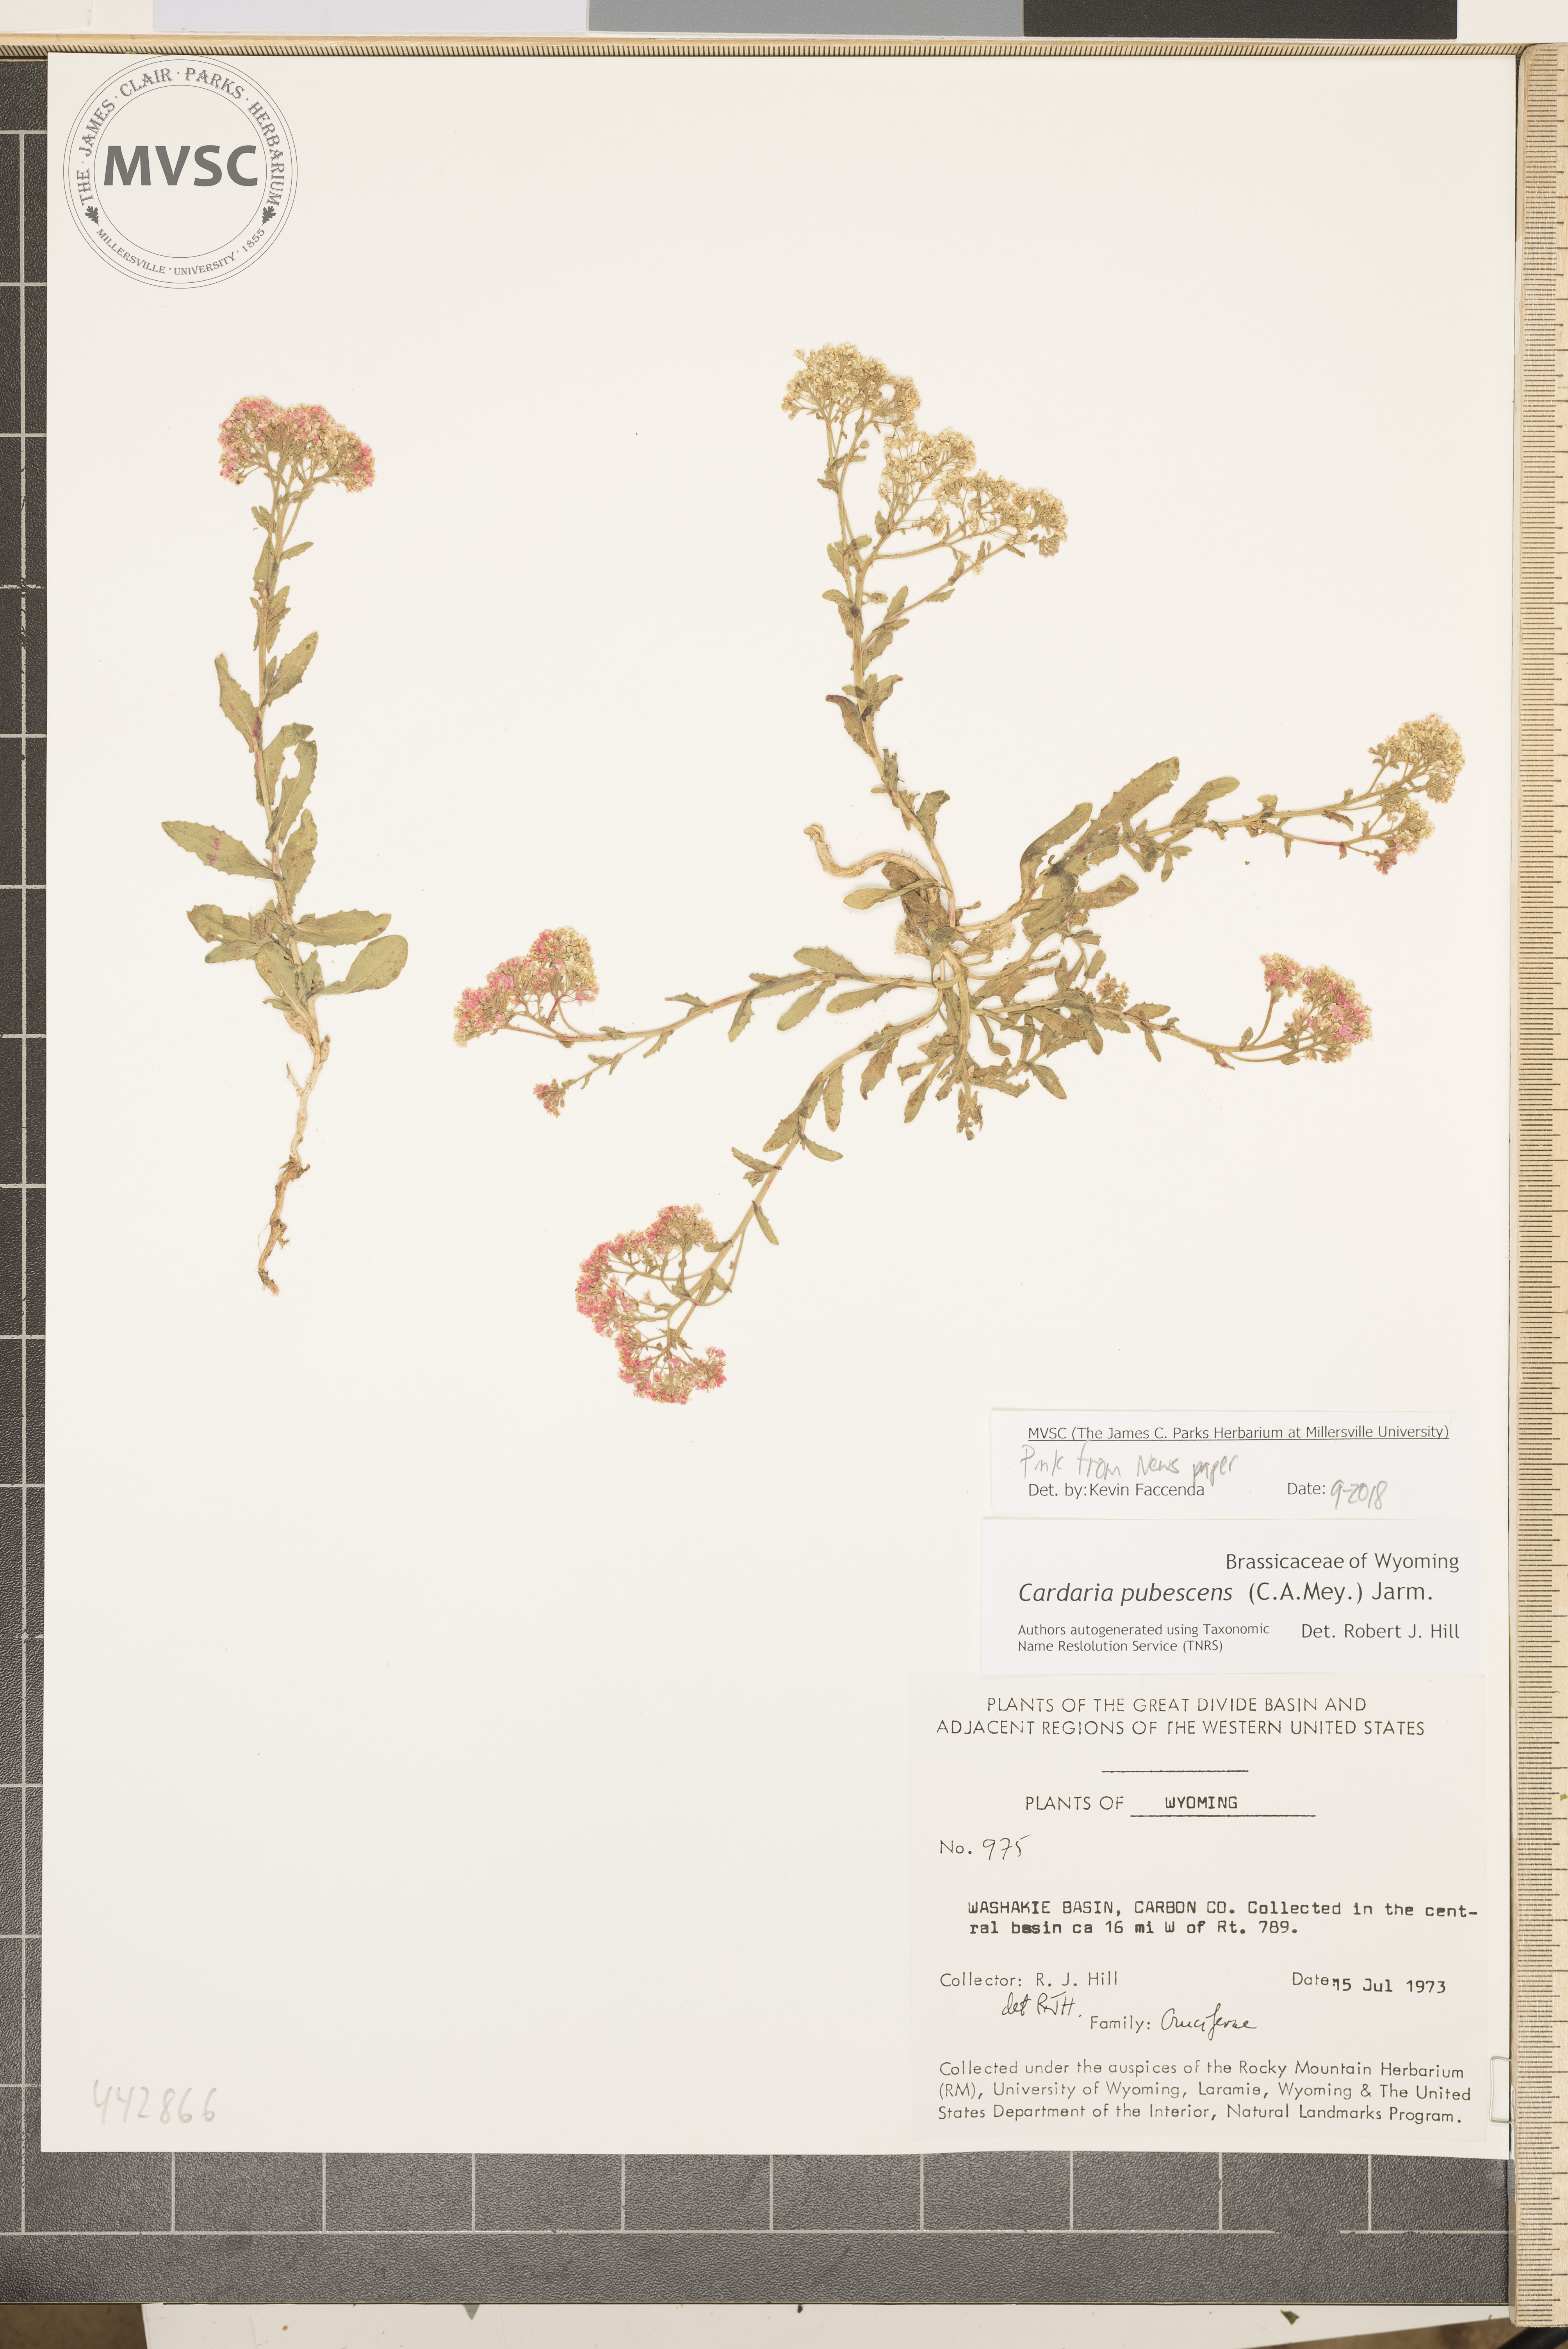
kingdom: Plantae
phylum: Tracheophyta
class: Magnoliopsida
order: Brassicales
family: Brassicaceae
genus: Lepidium
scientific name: Lepidium appelianum
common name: Hairy whitetop
